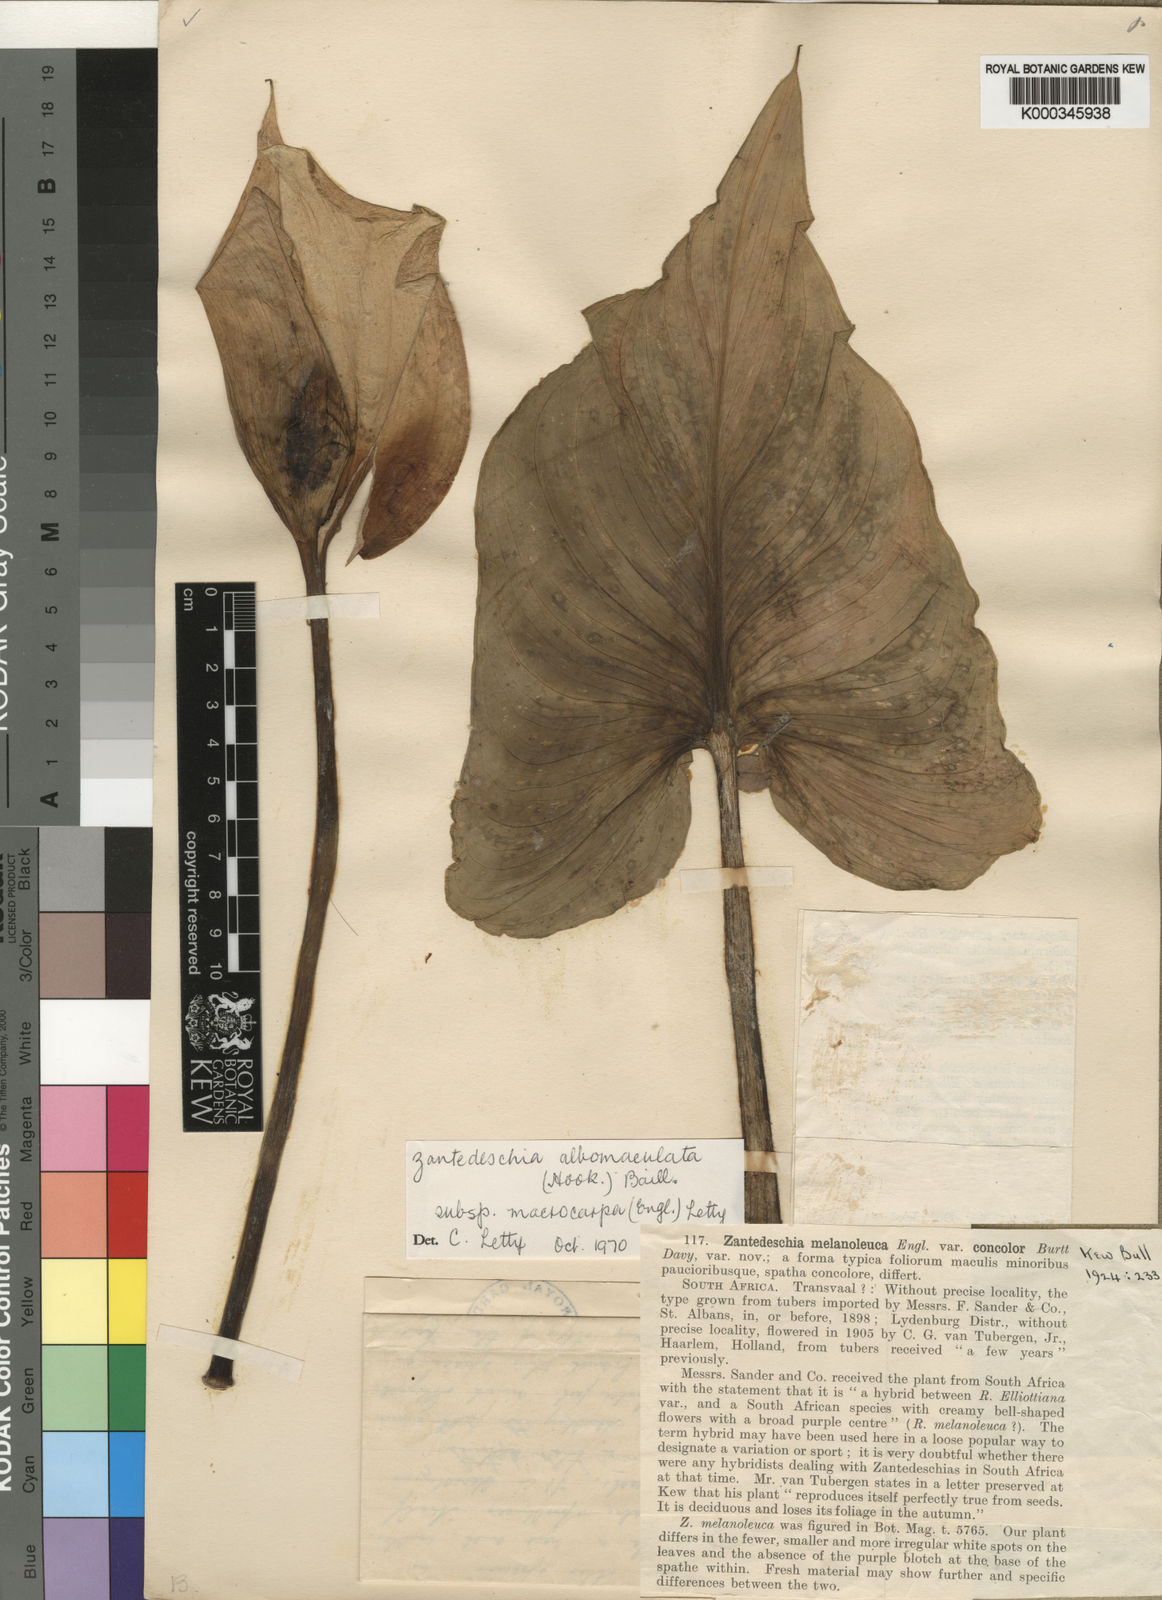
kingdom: Plantae
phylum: Tracheophyta
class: Liliopsida
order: Alismatales
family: Araceae
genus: Zantedeschia
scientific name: Zantedeschia albomaculata
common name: Spotted calla lily
